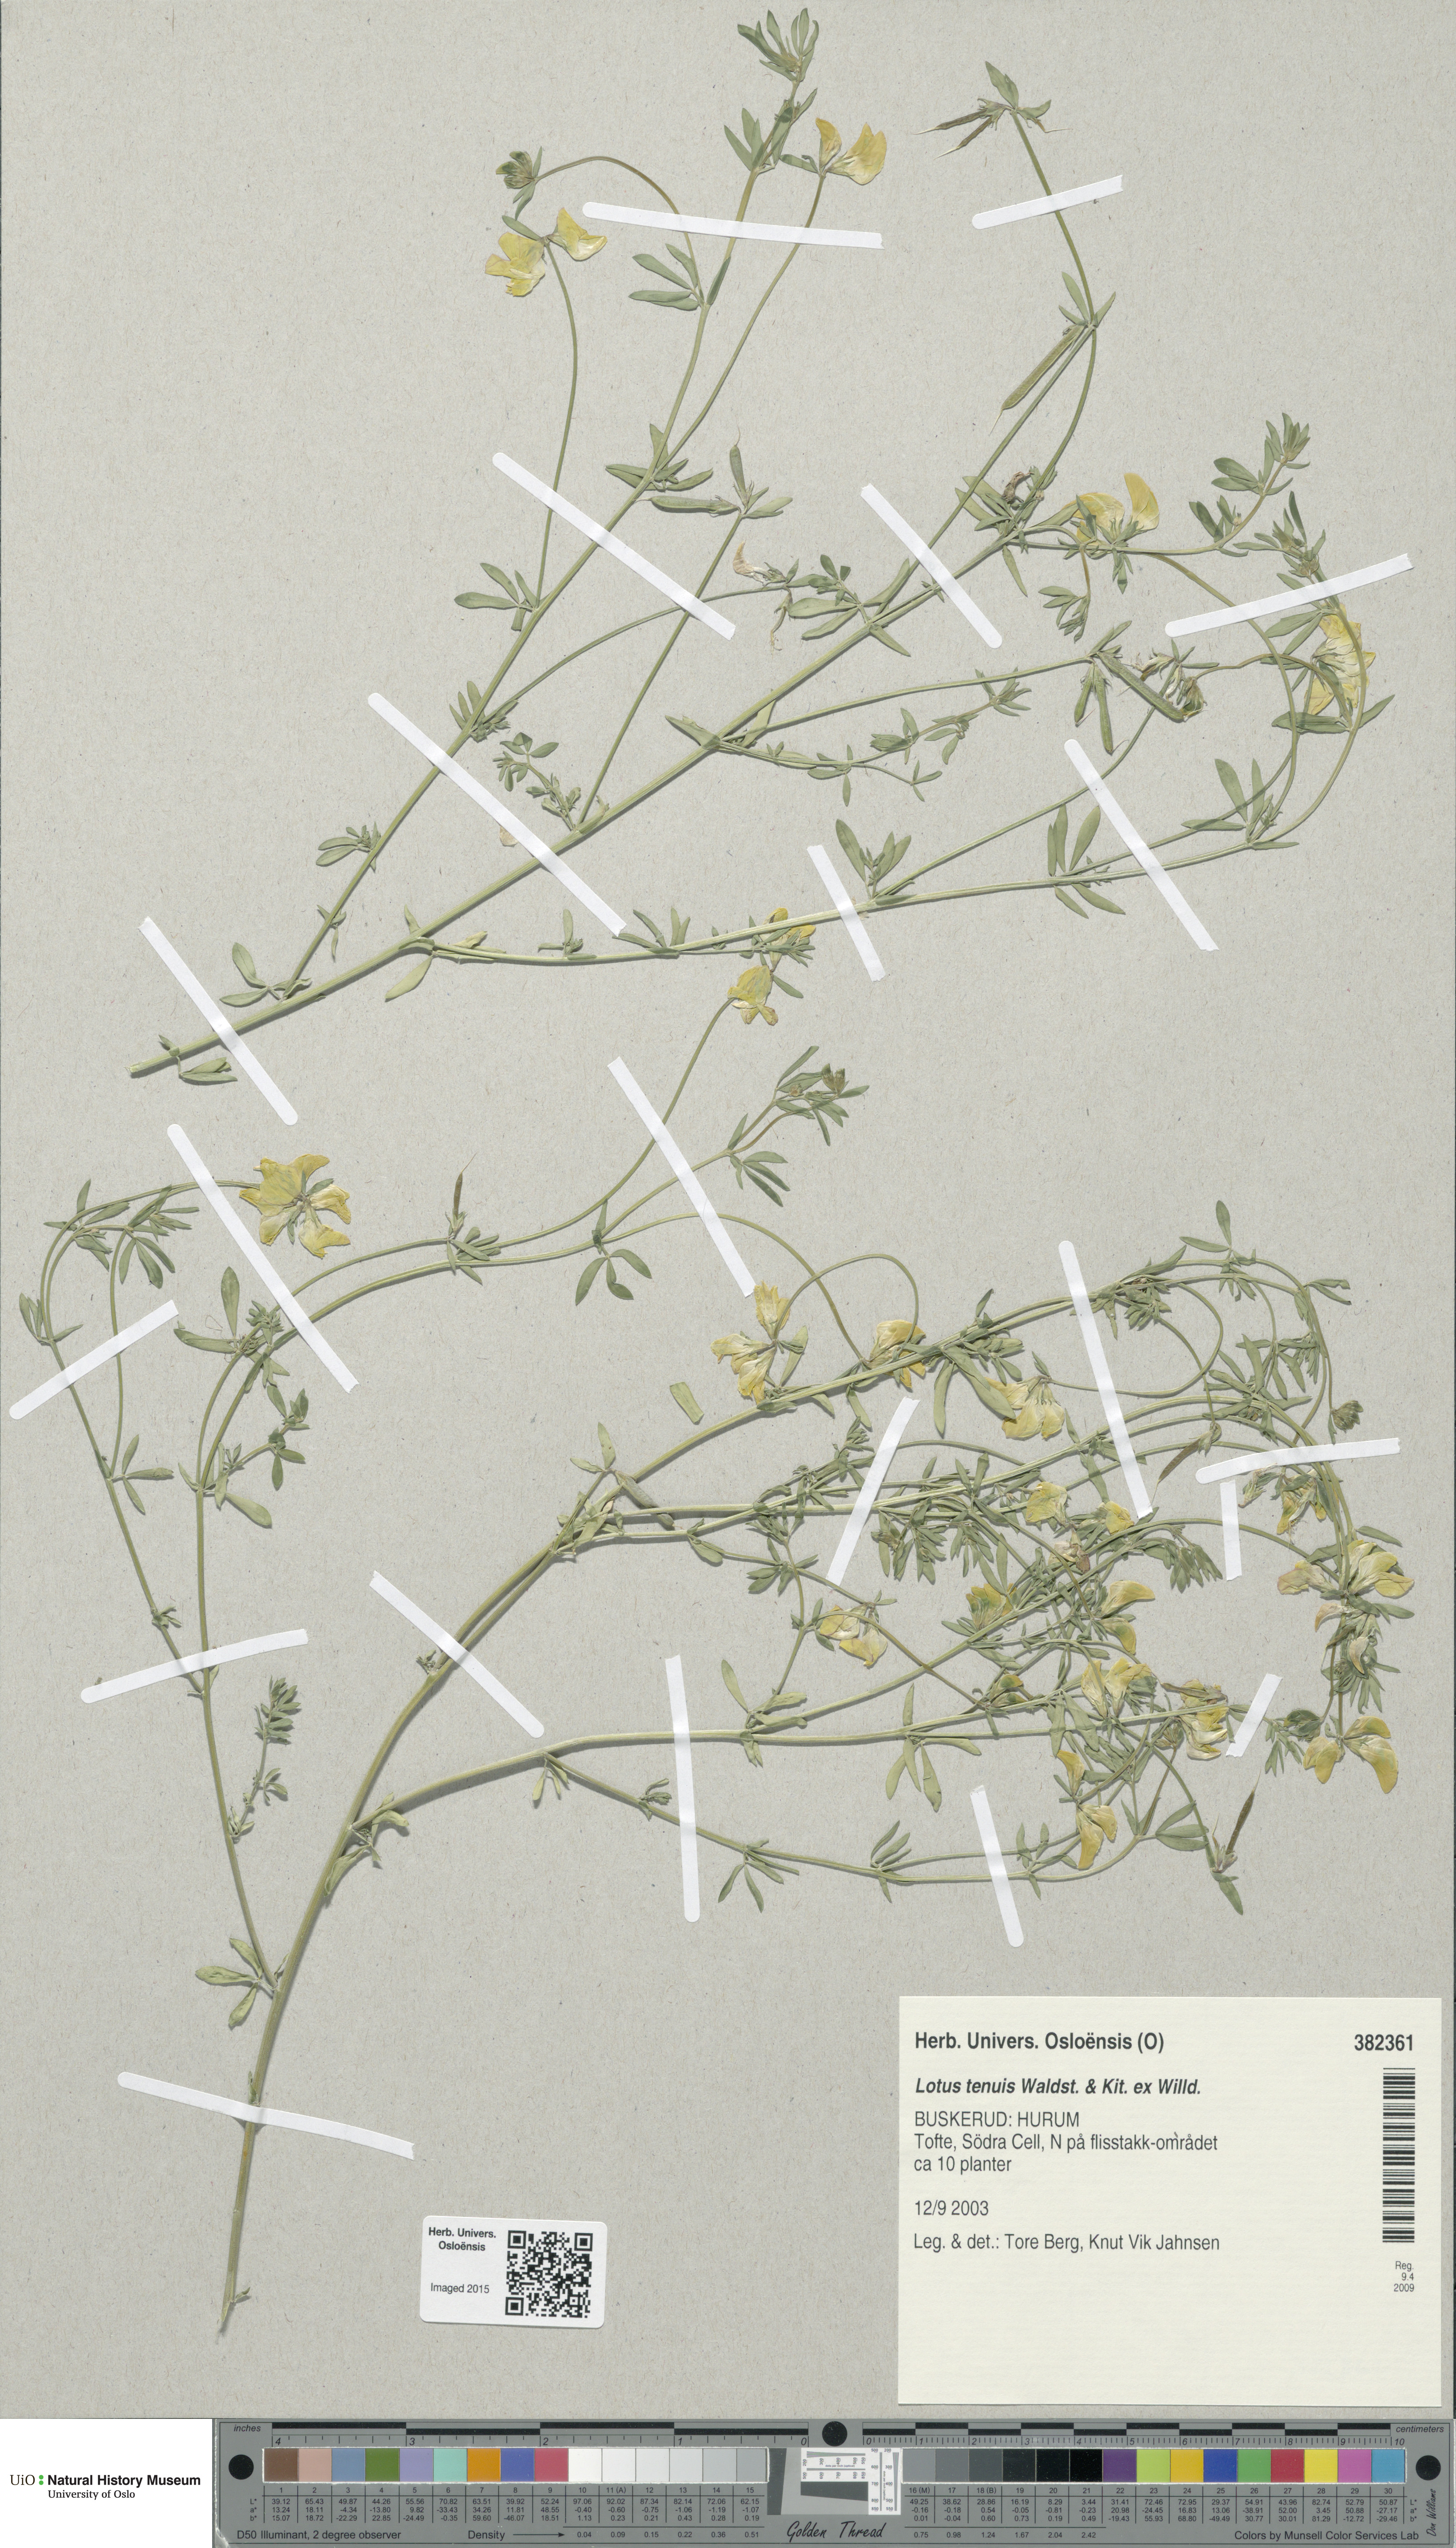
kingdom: Plantae
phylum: Tracheophyta
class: Magnoliopsida
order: Fabales
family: Fabaceae
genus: Lotus
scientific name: Lotus tenuis
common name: Narrow-leaved bird's-foot-trefoil
